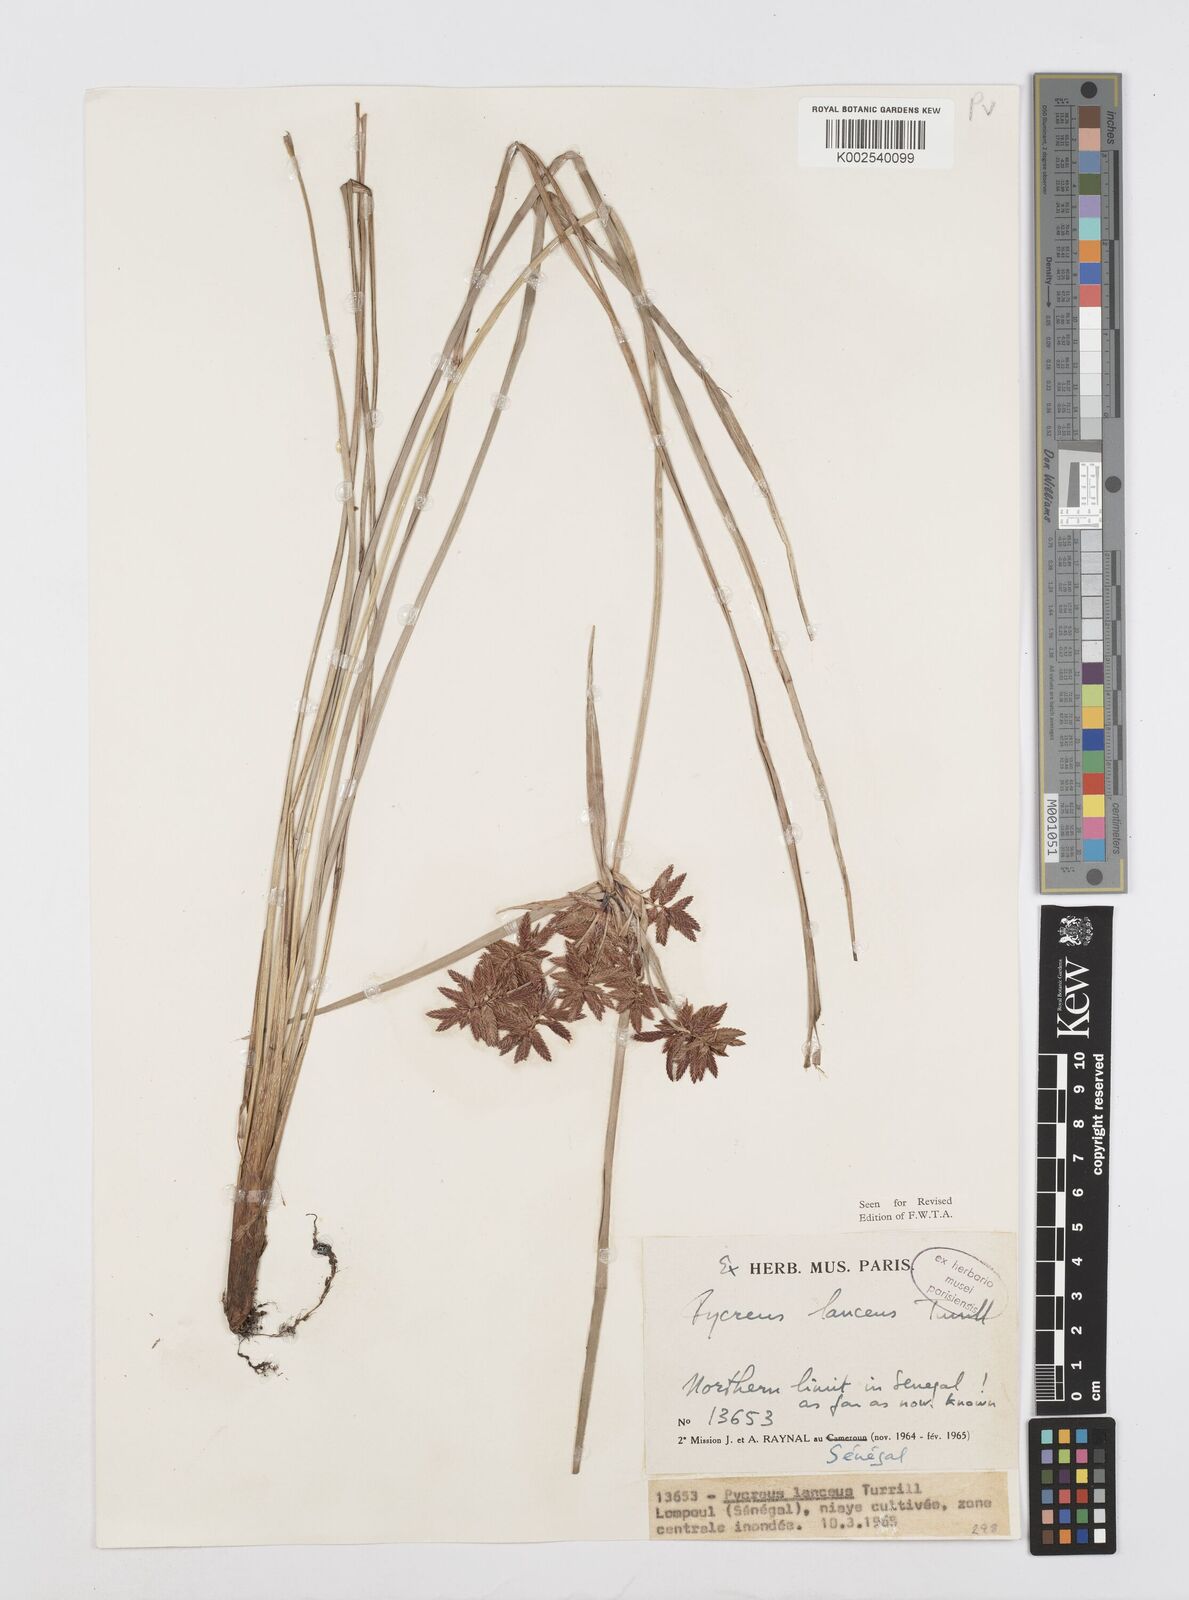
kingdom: Plantae
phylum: Tracheophyta
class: Liliopsida
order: Poales
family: Cyperaceae
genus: Cyperus
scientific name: Cyperus nitidus
